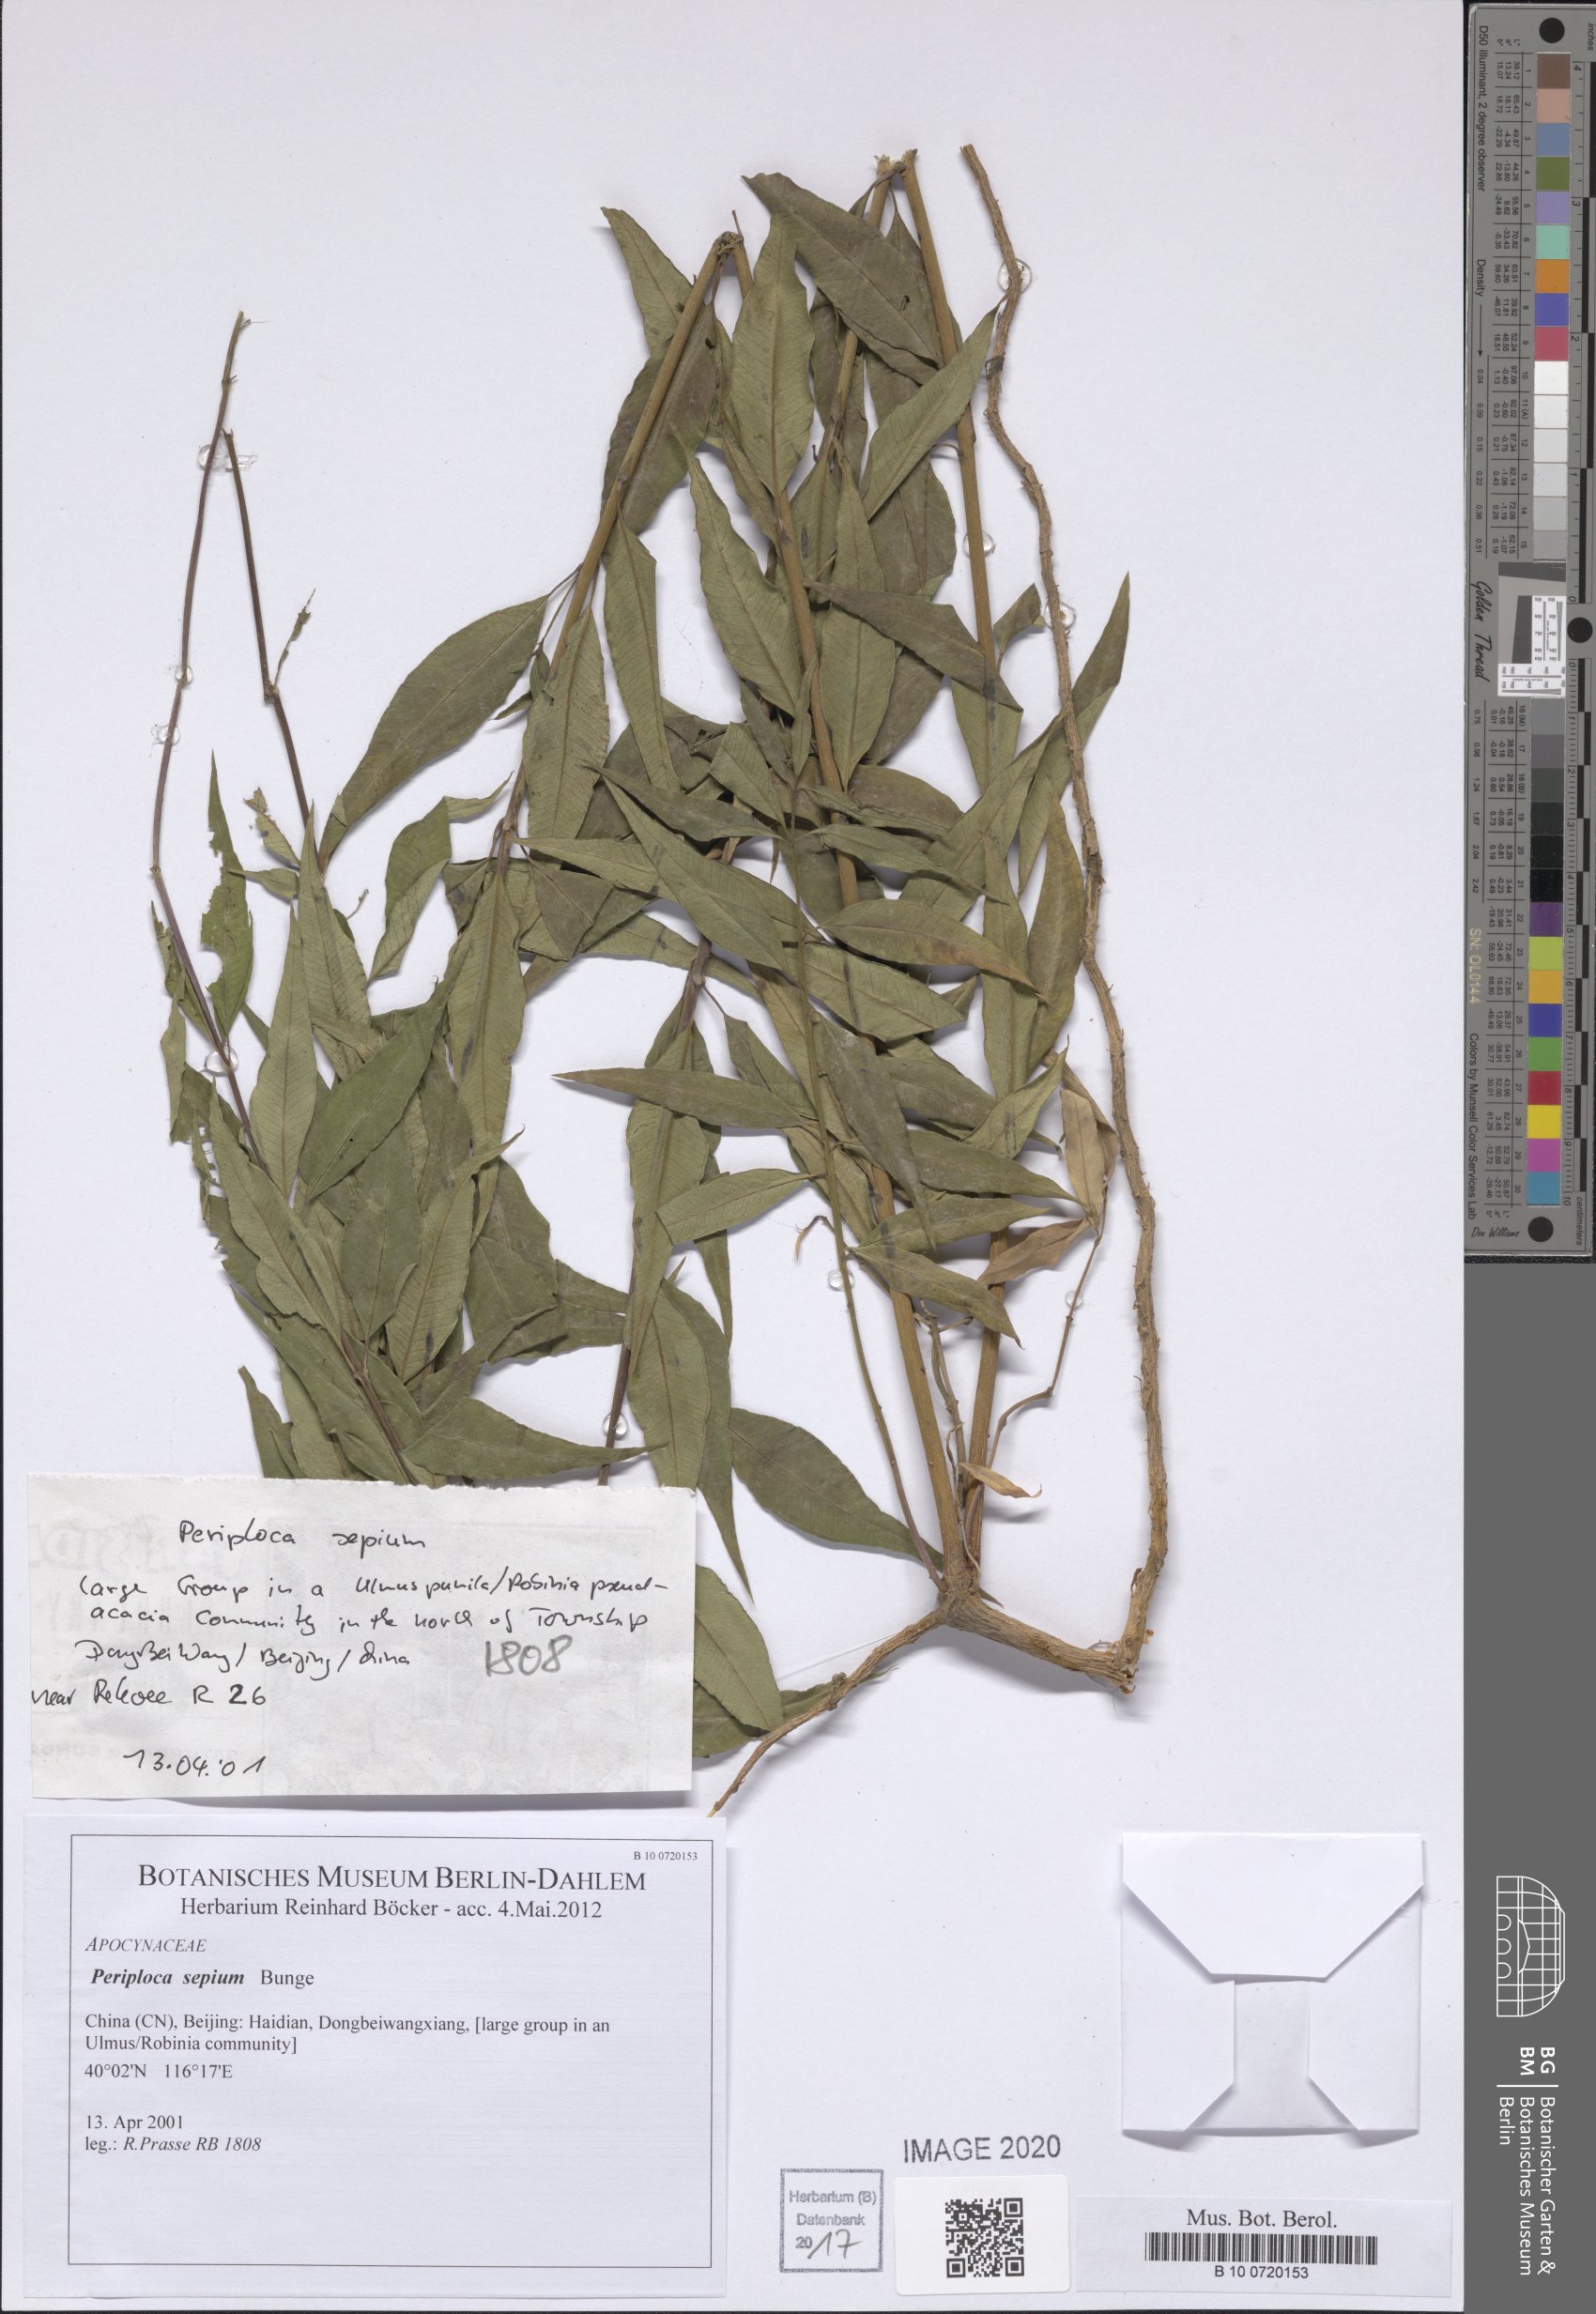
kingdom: Plantae
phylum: Tracheophyta
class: Magnoliopsida
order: Gentianales
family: Apocynaceae
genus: Periploca
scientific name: Periploca sepium
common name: Chinese silkvine
